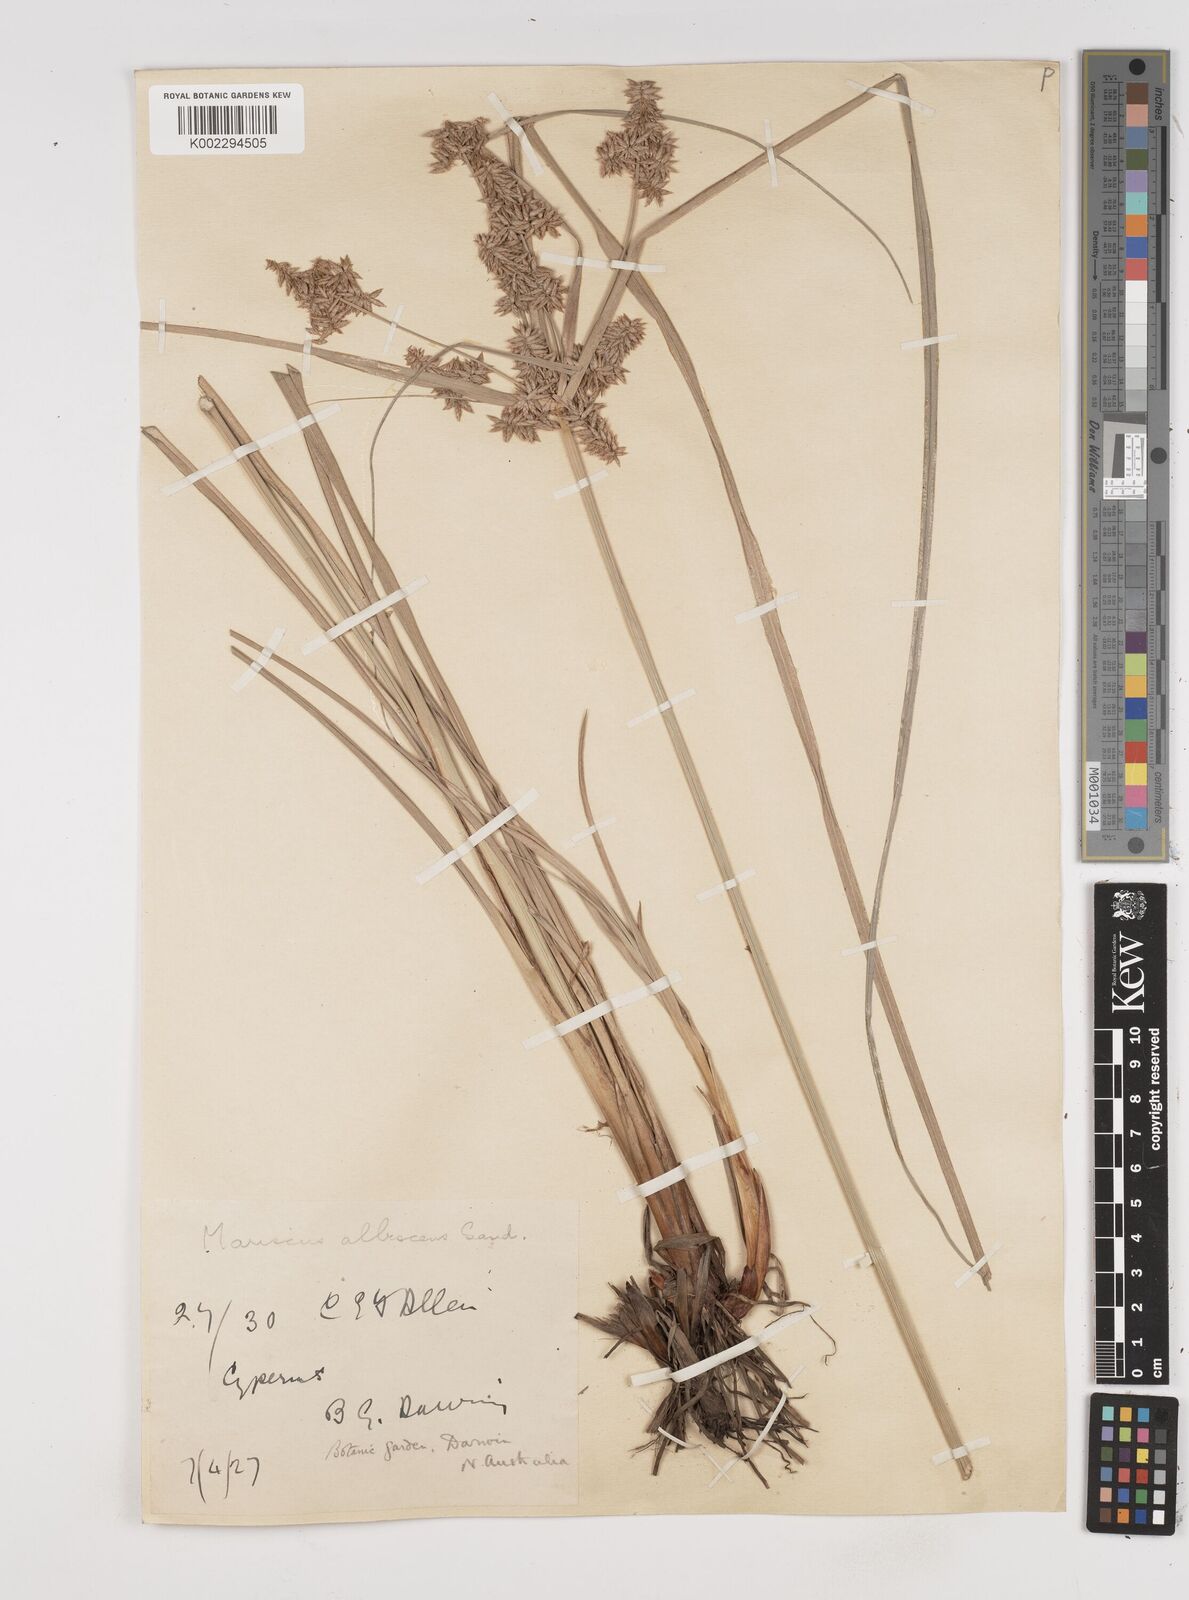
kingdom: Plantae
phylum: Tracheophyta
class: Liliopsida
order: Poales
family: Cyperaceae
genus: Cyperus
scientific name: Cyperus javanicus
